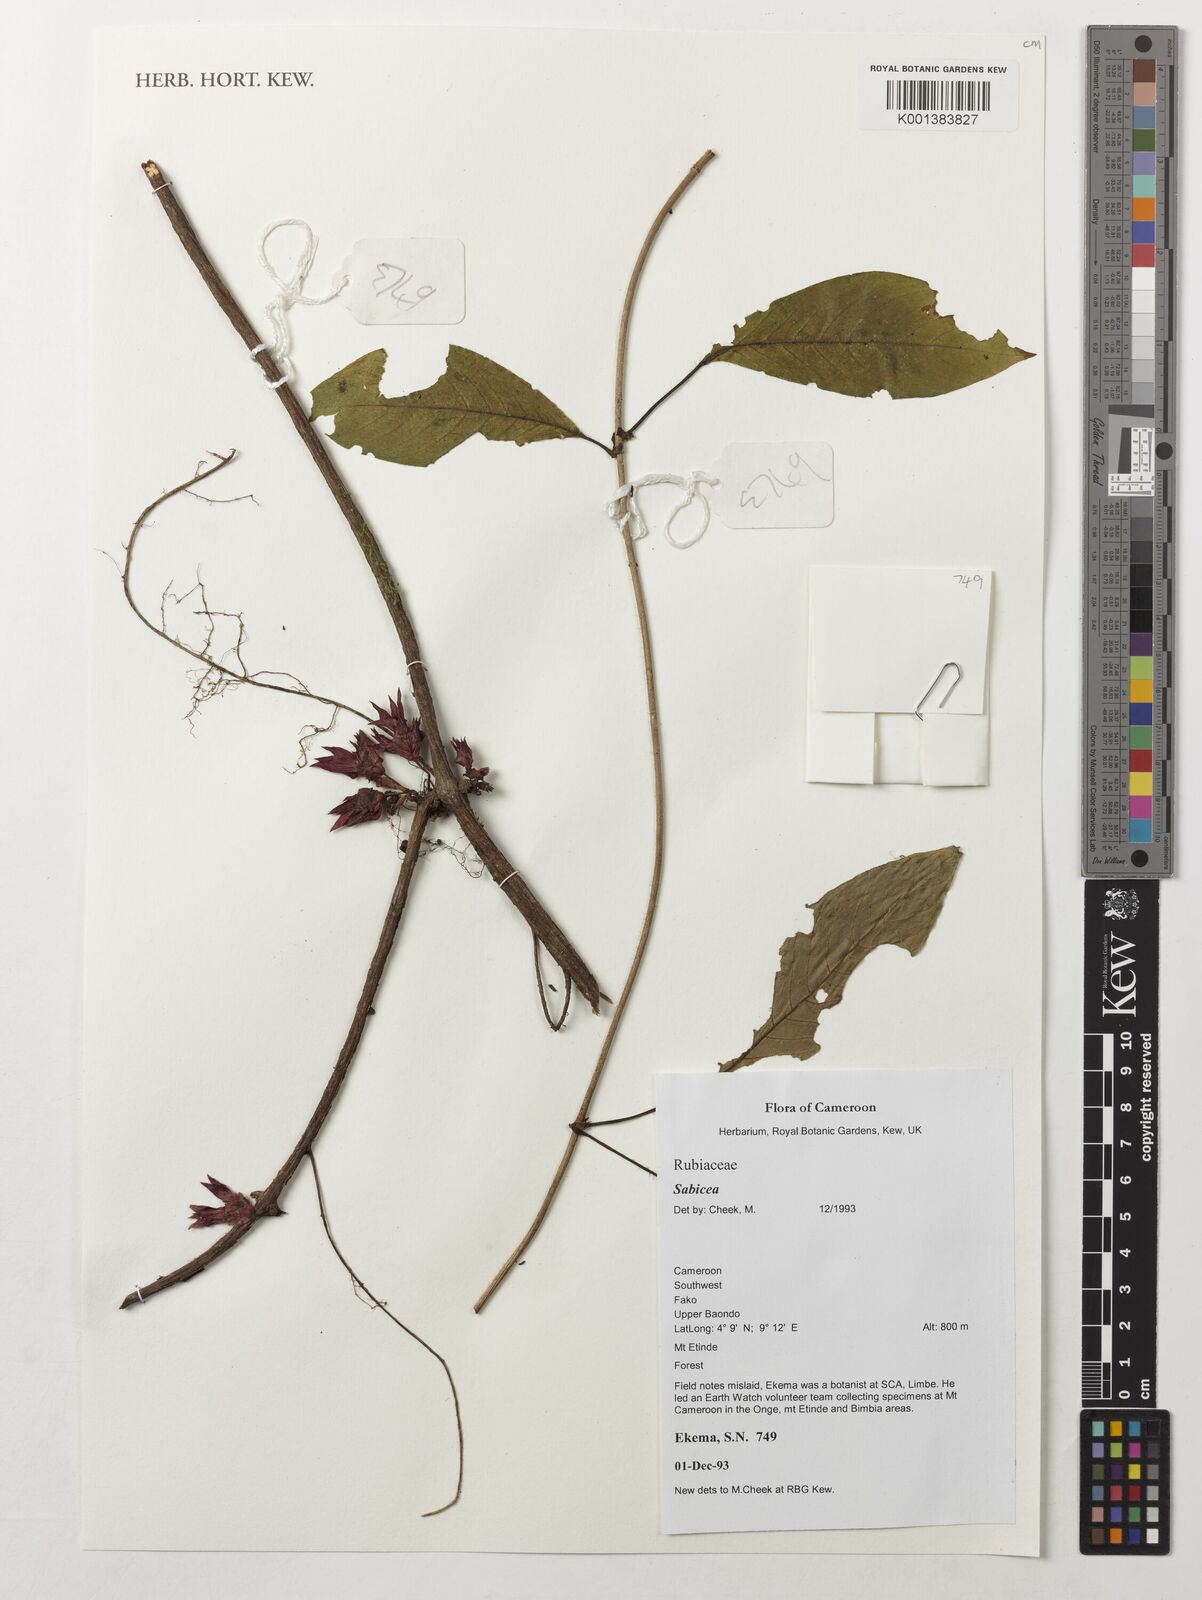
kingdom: Plantae
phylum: Tracheophyta
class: Magnoliopsida
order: Gentianales
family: Rubiaceae
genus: Sabicea
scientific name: Sabicea
